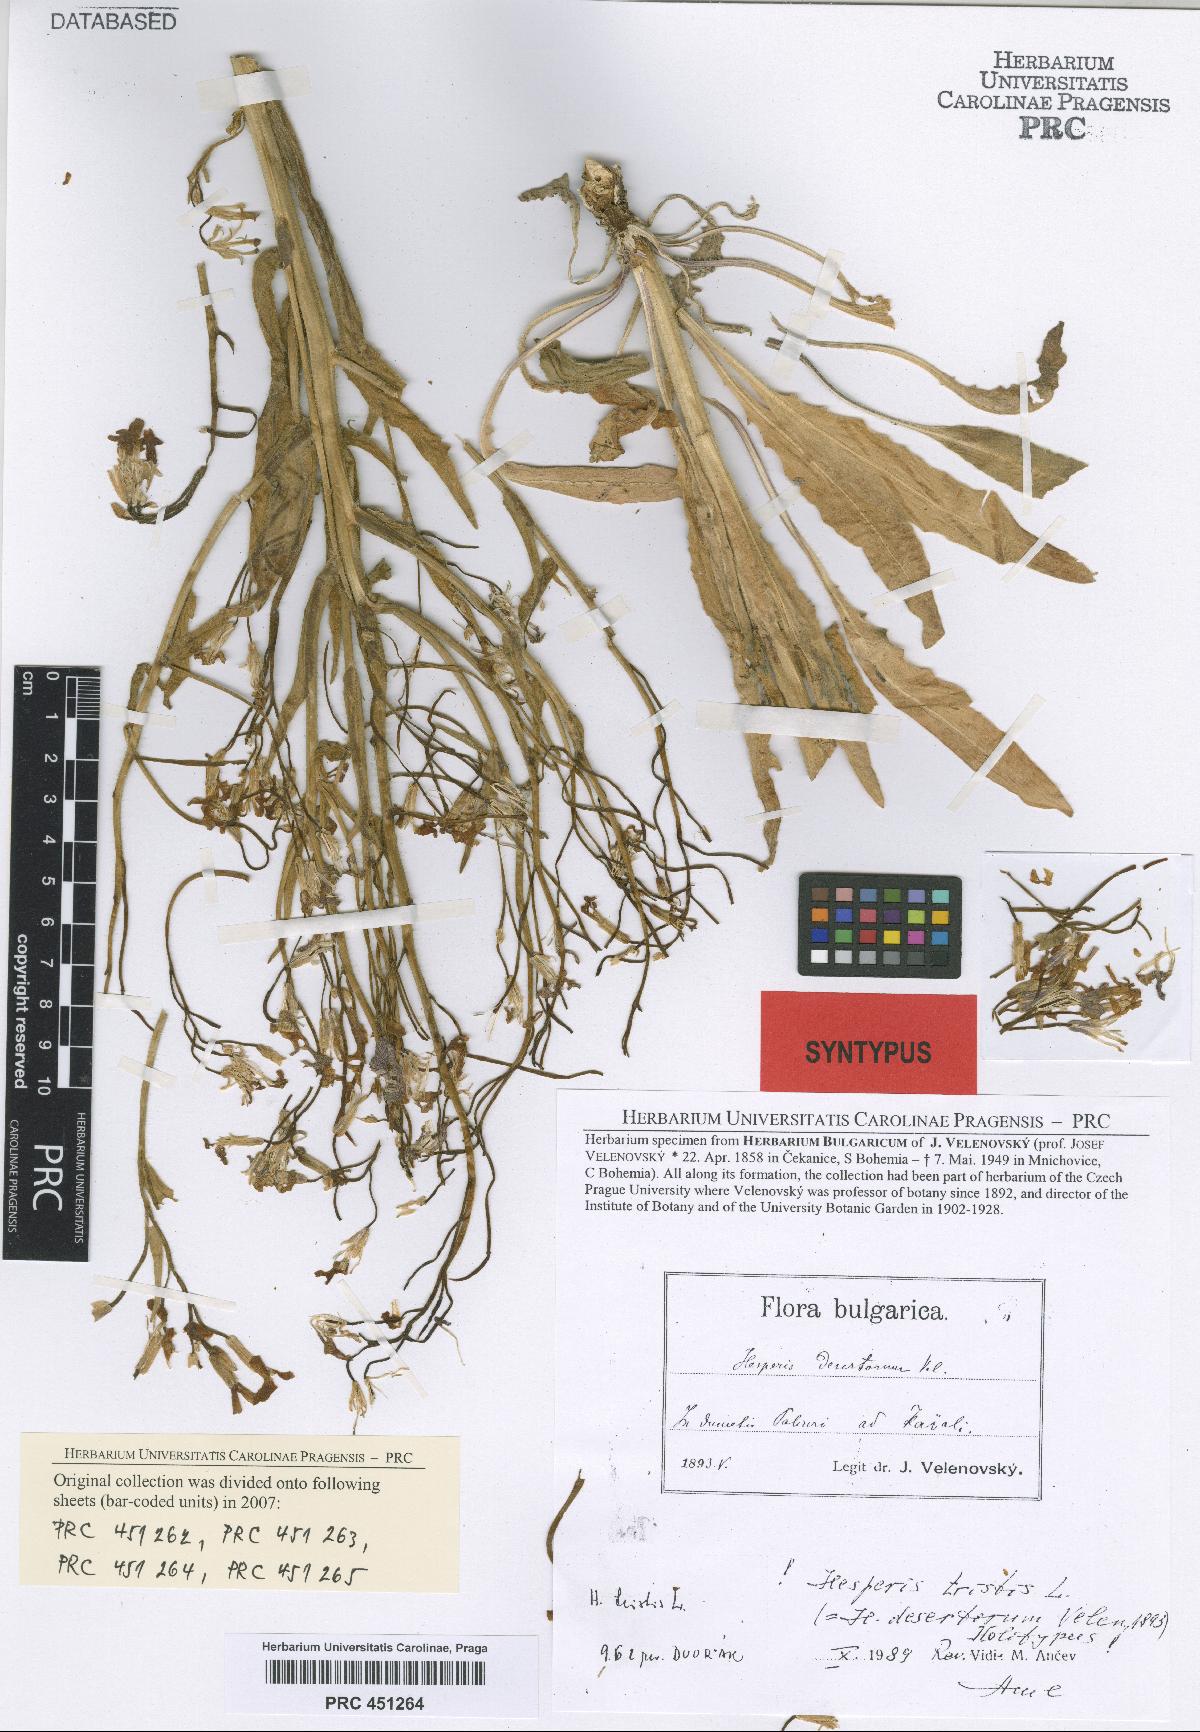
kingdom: Plantae
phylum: Tracheophyta
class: Magnoliopsida
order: Brassicales
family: Brassicaceae
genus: Hesperis
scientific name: Hesperis tristis
